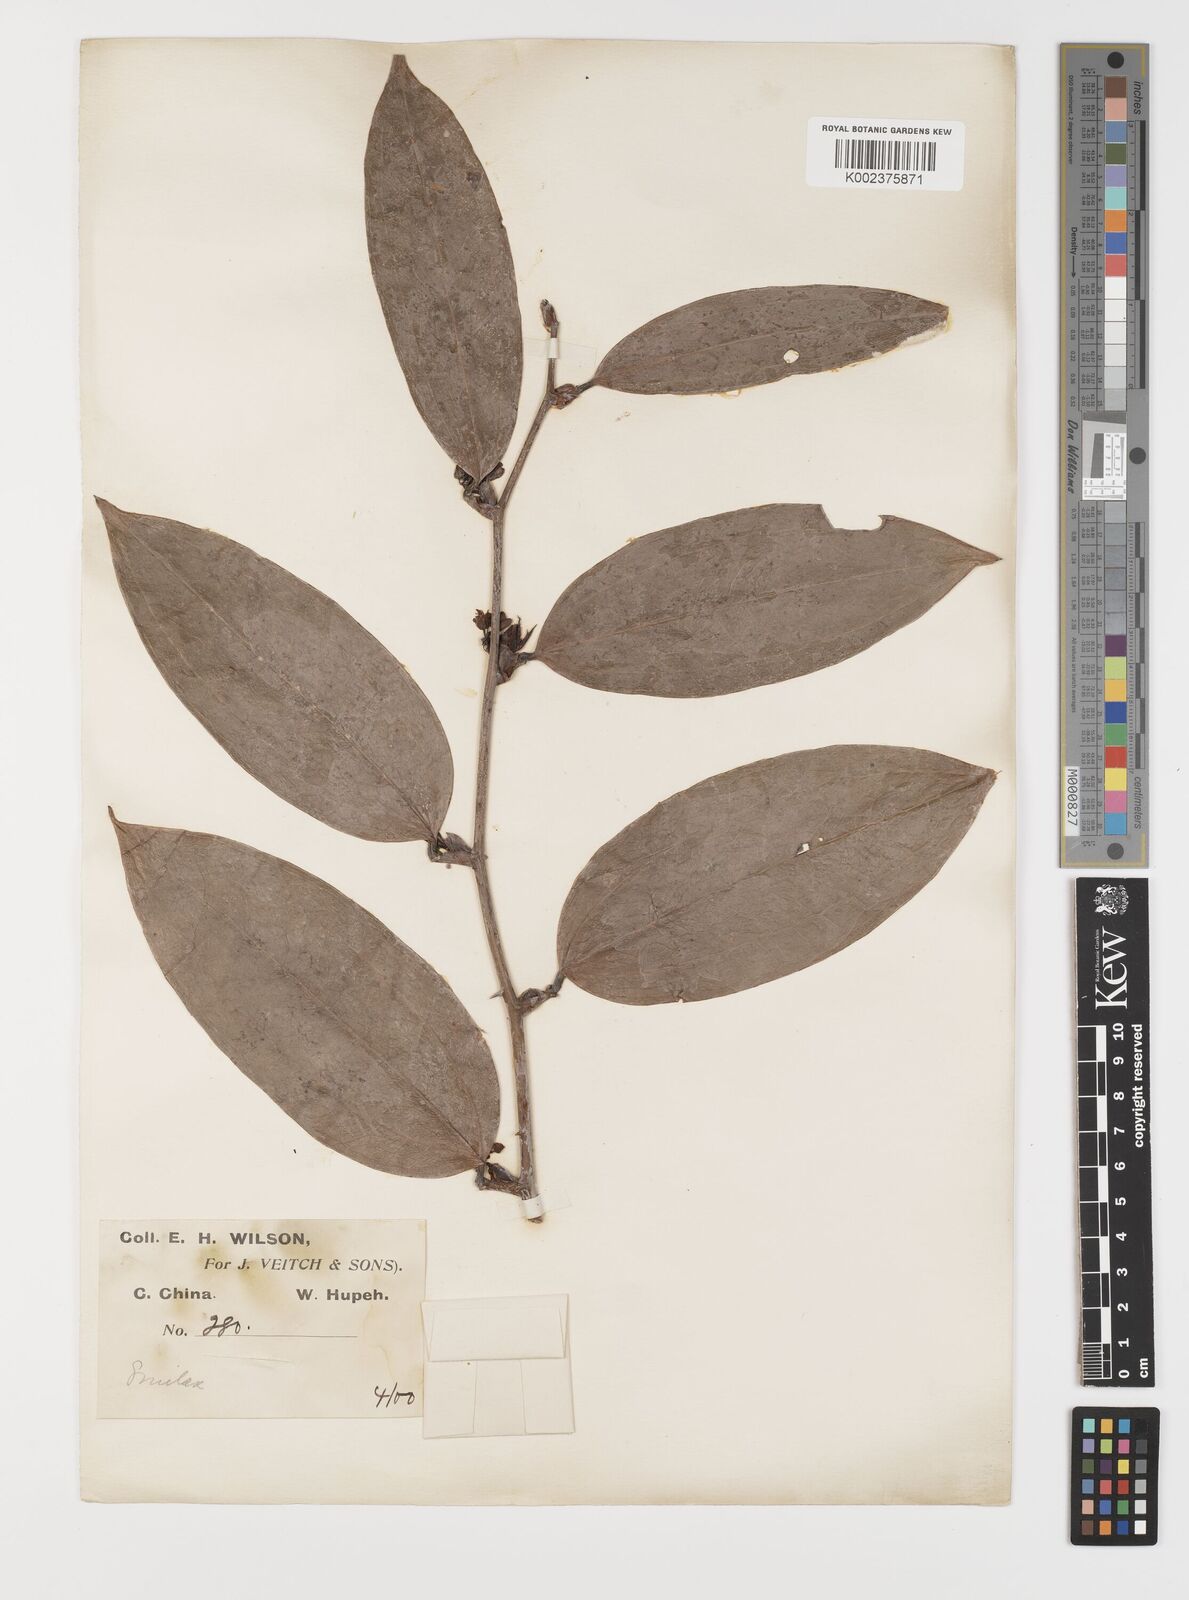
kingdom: Plantae
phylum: Tracheophyta
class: Liliopsida
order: Liliales
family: Smilacaceae
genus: Smilax
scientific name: Smilax megalantha
